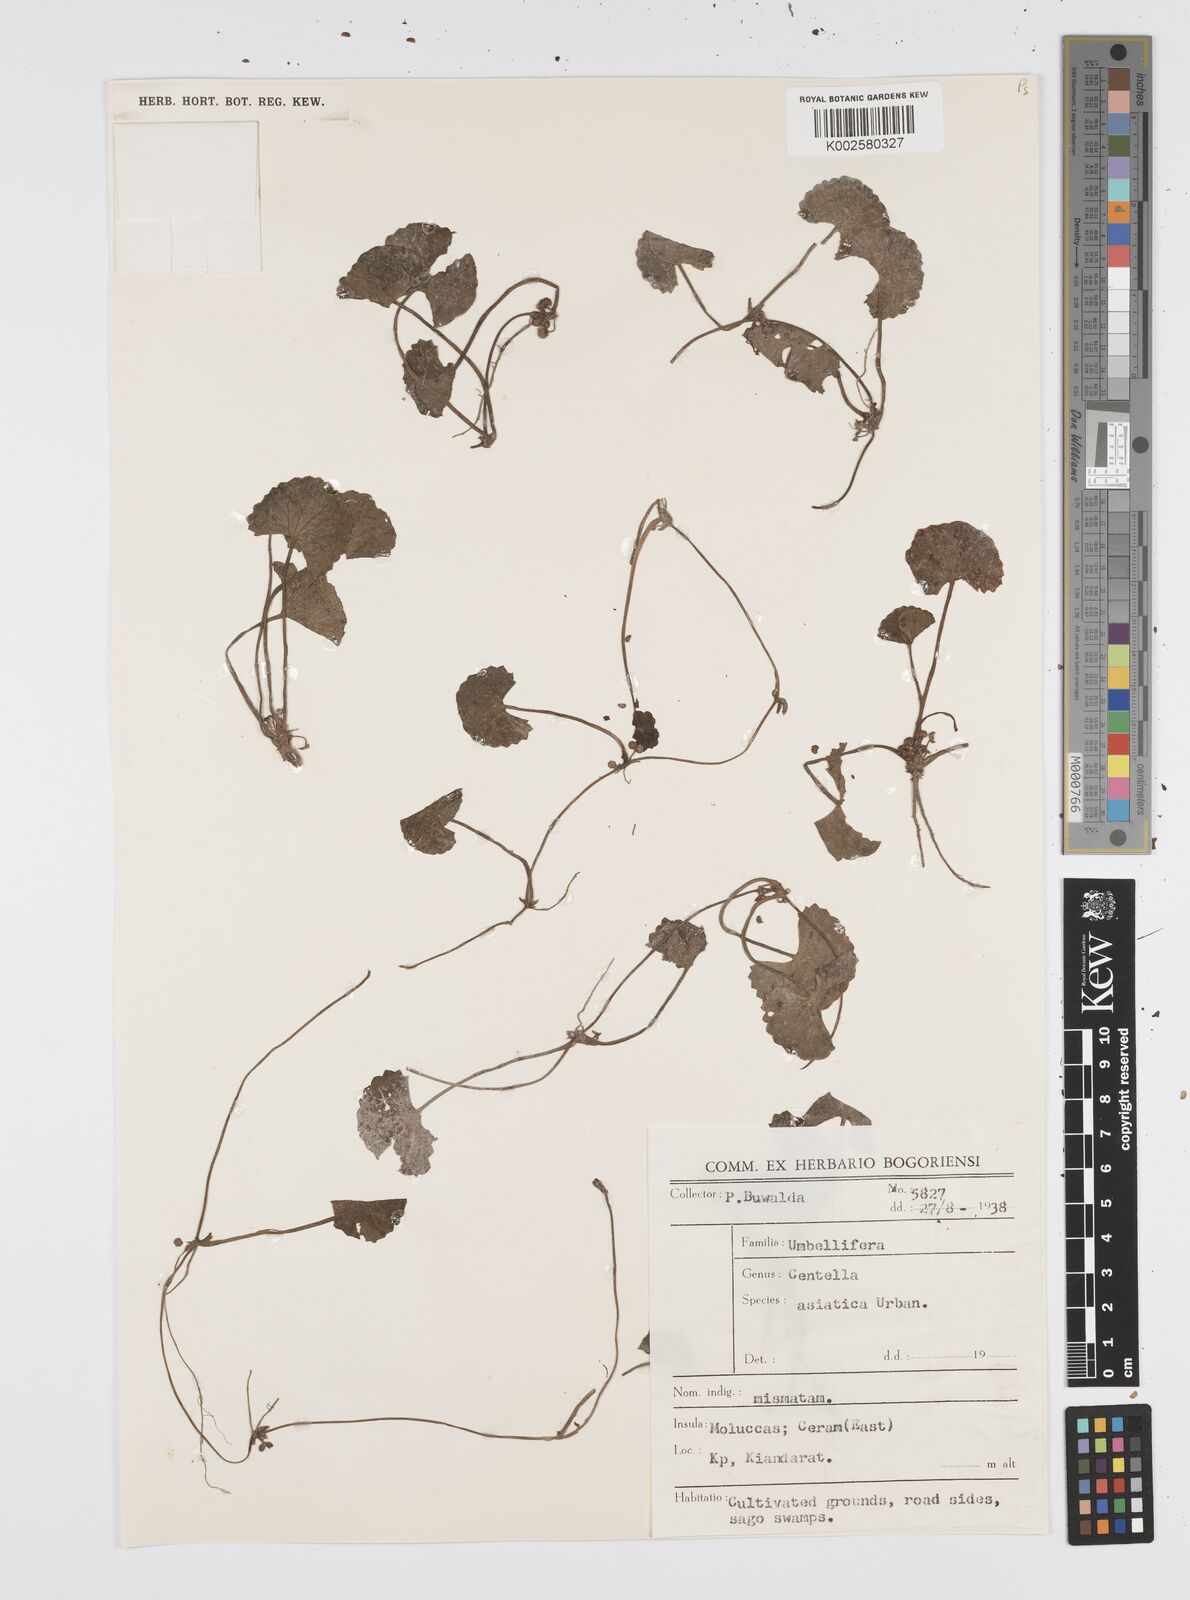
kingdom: Plantae
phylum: Tracheophyta
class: Magnoliopsida
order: Apiales
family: Apiaceae
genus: Centella
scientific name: Centella asiatica
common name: Spadeleaf
